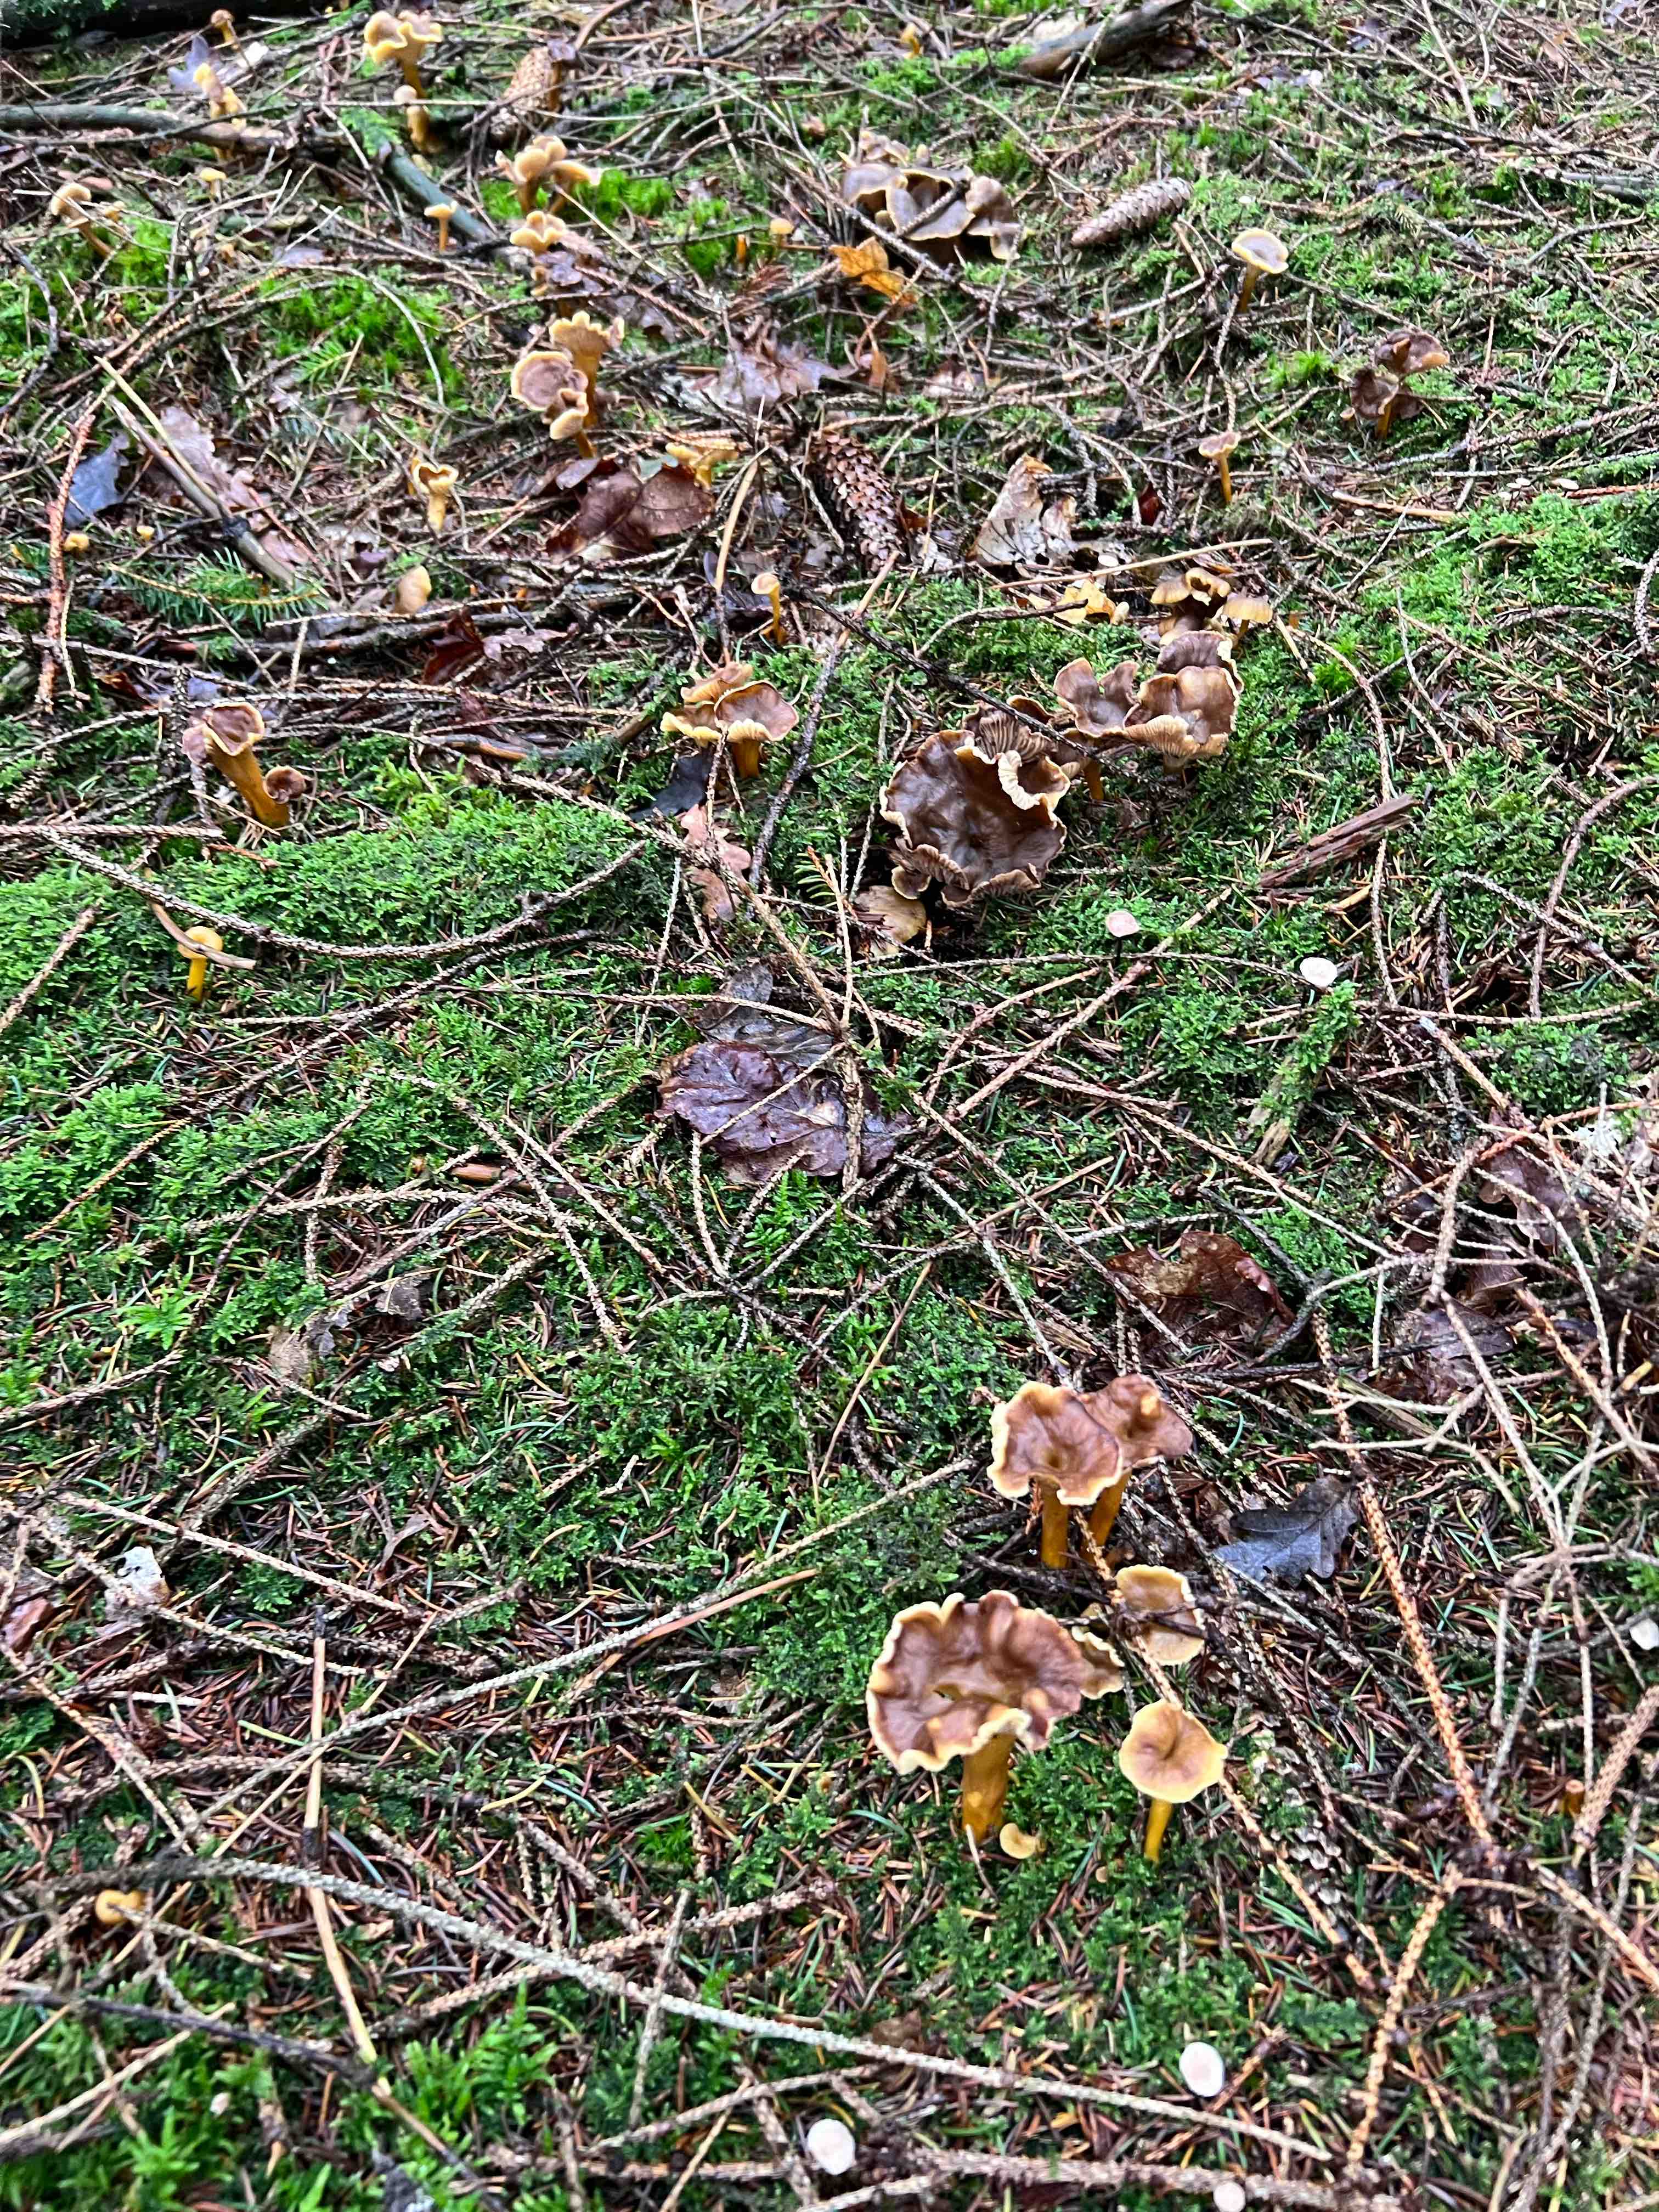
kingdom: Fungi
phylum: Basidiomycota
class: Agaricomycetes
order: Cantharellales
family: Hydnaceae
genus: Craterellus
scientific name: Craterellus tubaeformis
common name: tragt-kantarel
